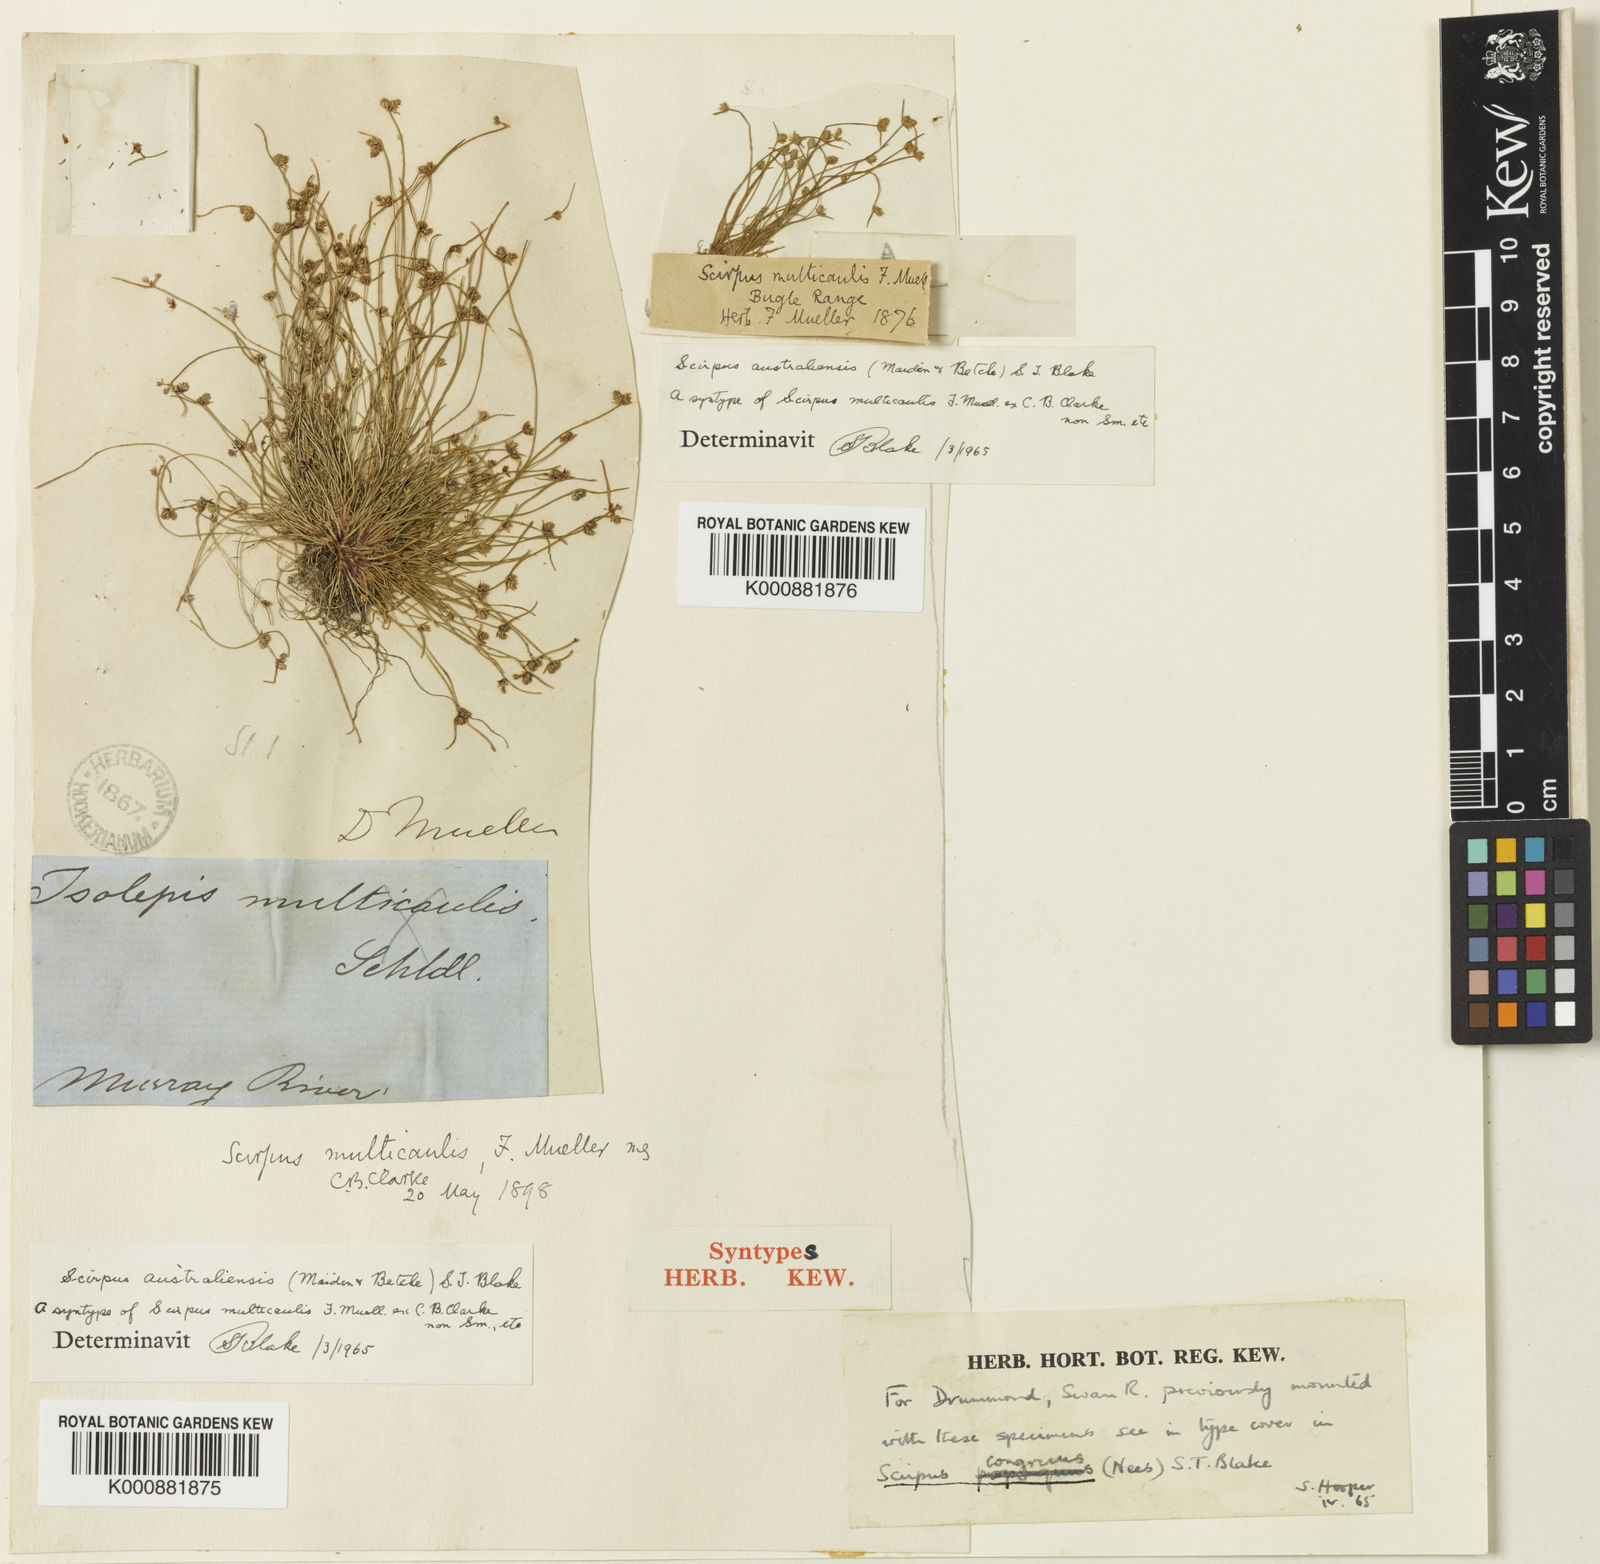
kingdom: Plantae
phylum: Tracheophyta
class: Liliopsida
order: Poales
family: Cyperaceae
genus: Isolepis
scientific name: Isolepis australiensis
